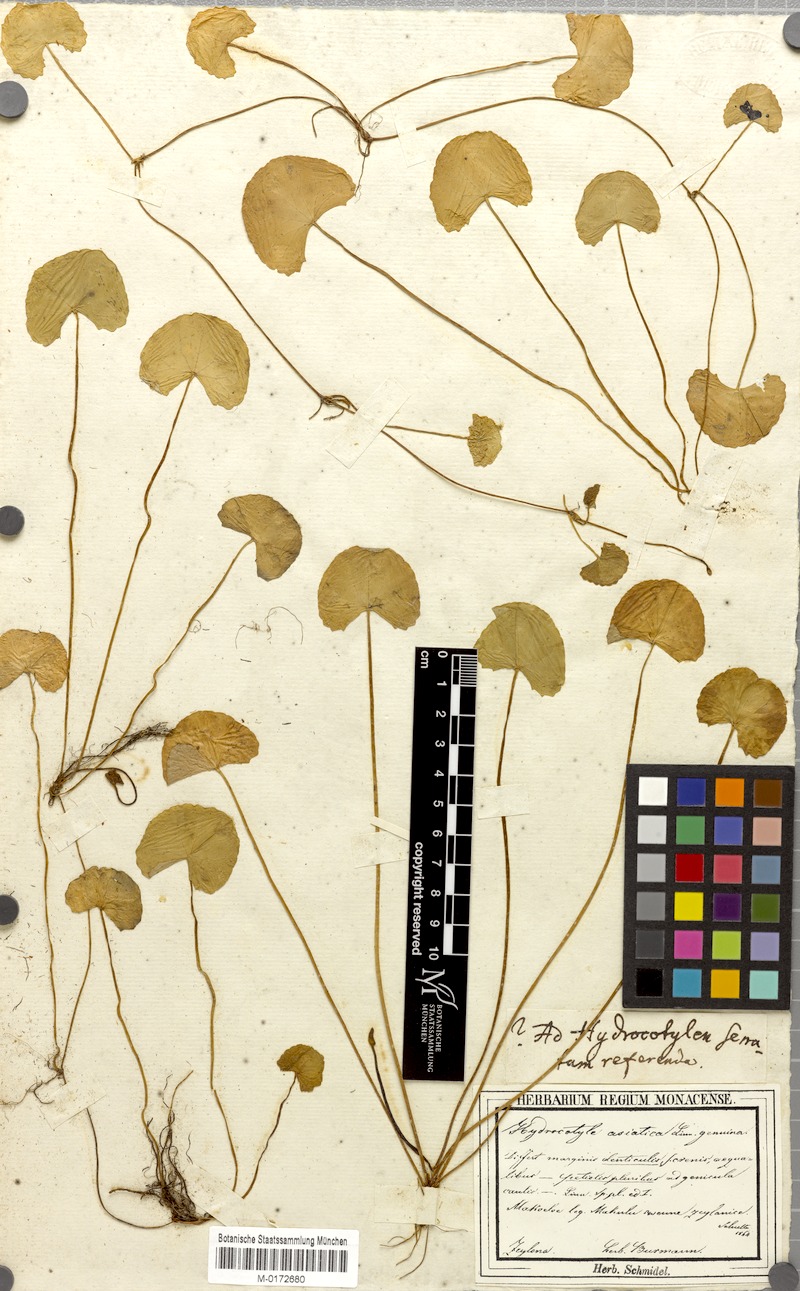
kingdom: Plantae
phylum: Tracheophyta
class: Magnoliopsida
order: Apiales
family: Apiaceae
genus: Centella
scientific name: Centella asiatica
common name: Spadeleaf
